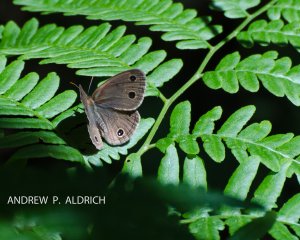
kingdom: Animalia
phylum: Arthropoda
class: Insecta
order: Lepidoptera
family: Nymphalidae
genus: Euptychia
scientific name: Euptychia cymela
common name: Little Wood Satyr
